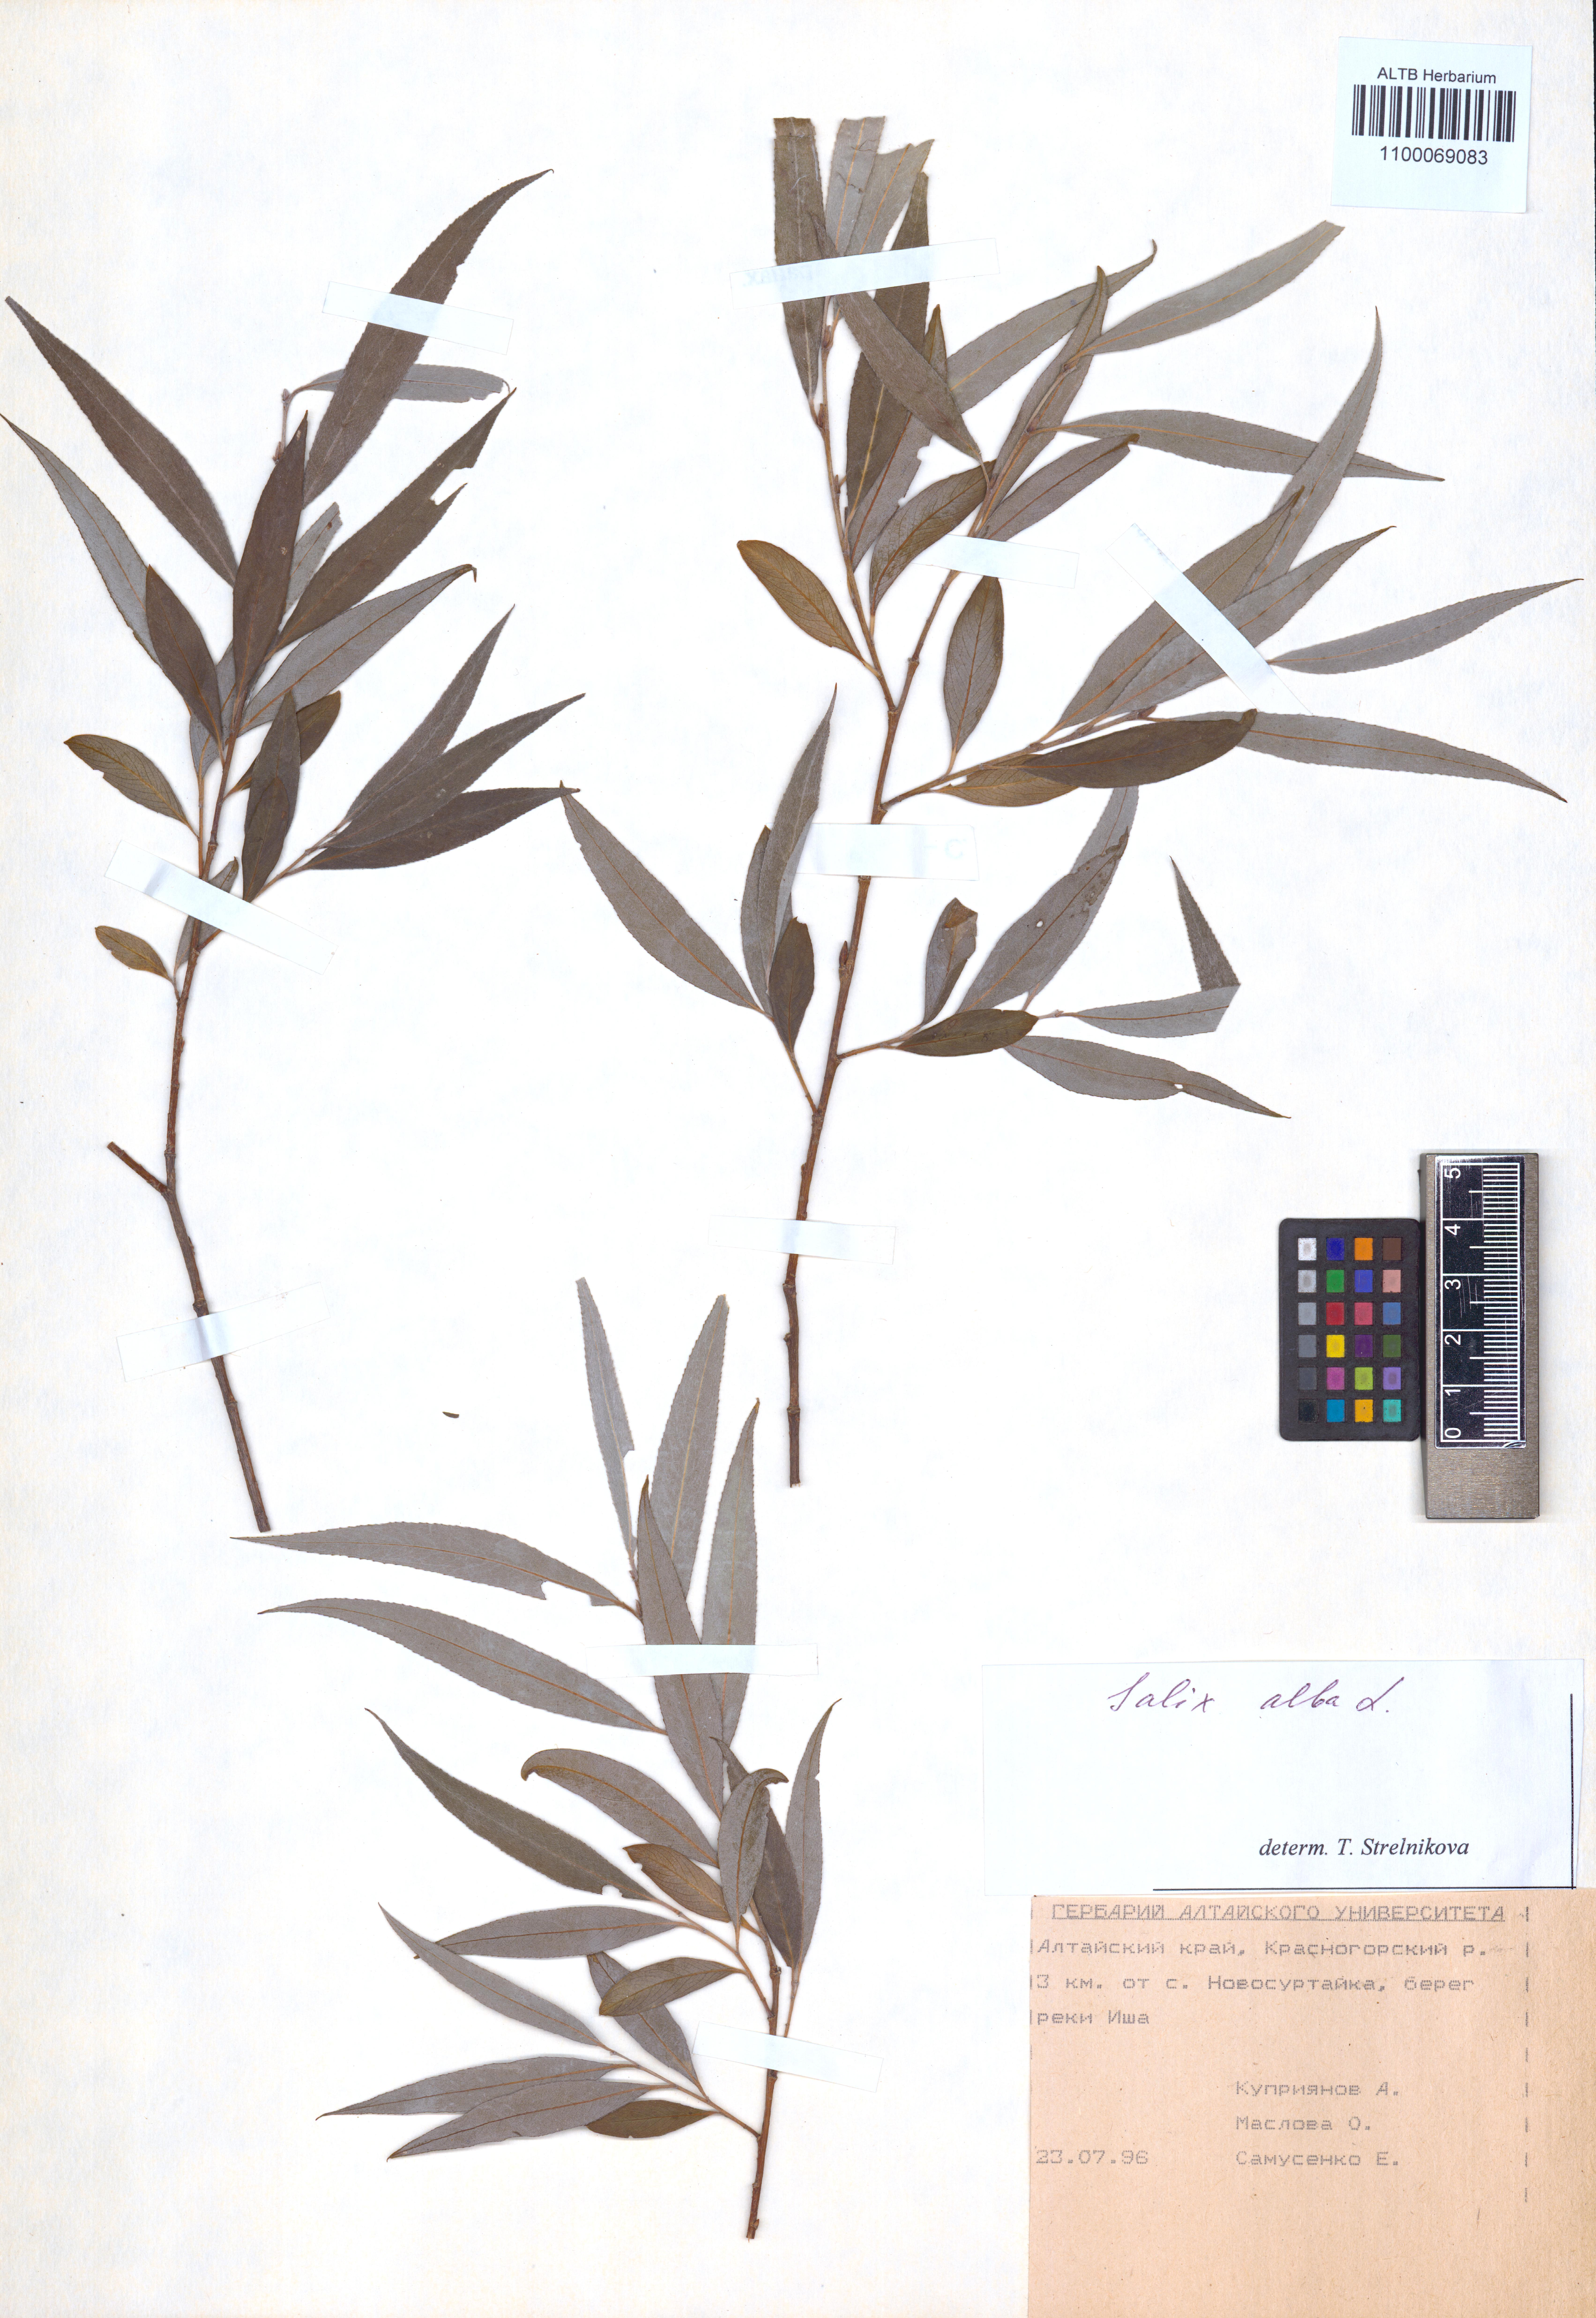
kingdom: Plantae
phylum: Tracheophyta
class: Magnoliopsida
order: Malpighiales
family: Salicaceae
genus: Salix
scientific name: Salix alba
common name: White willow
